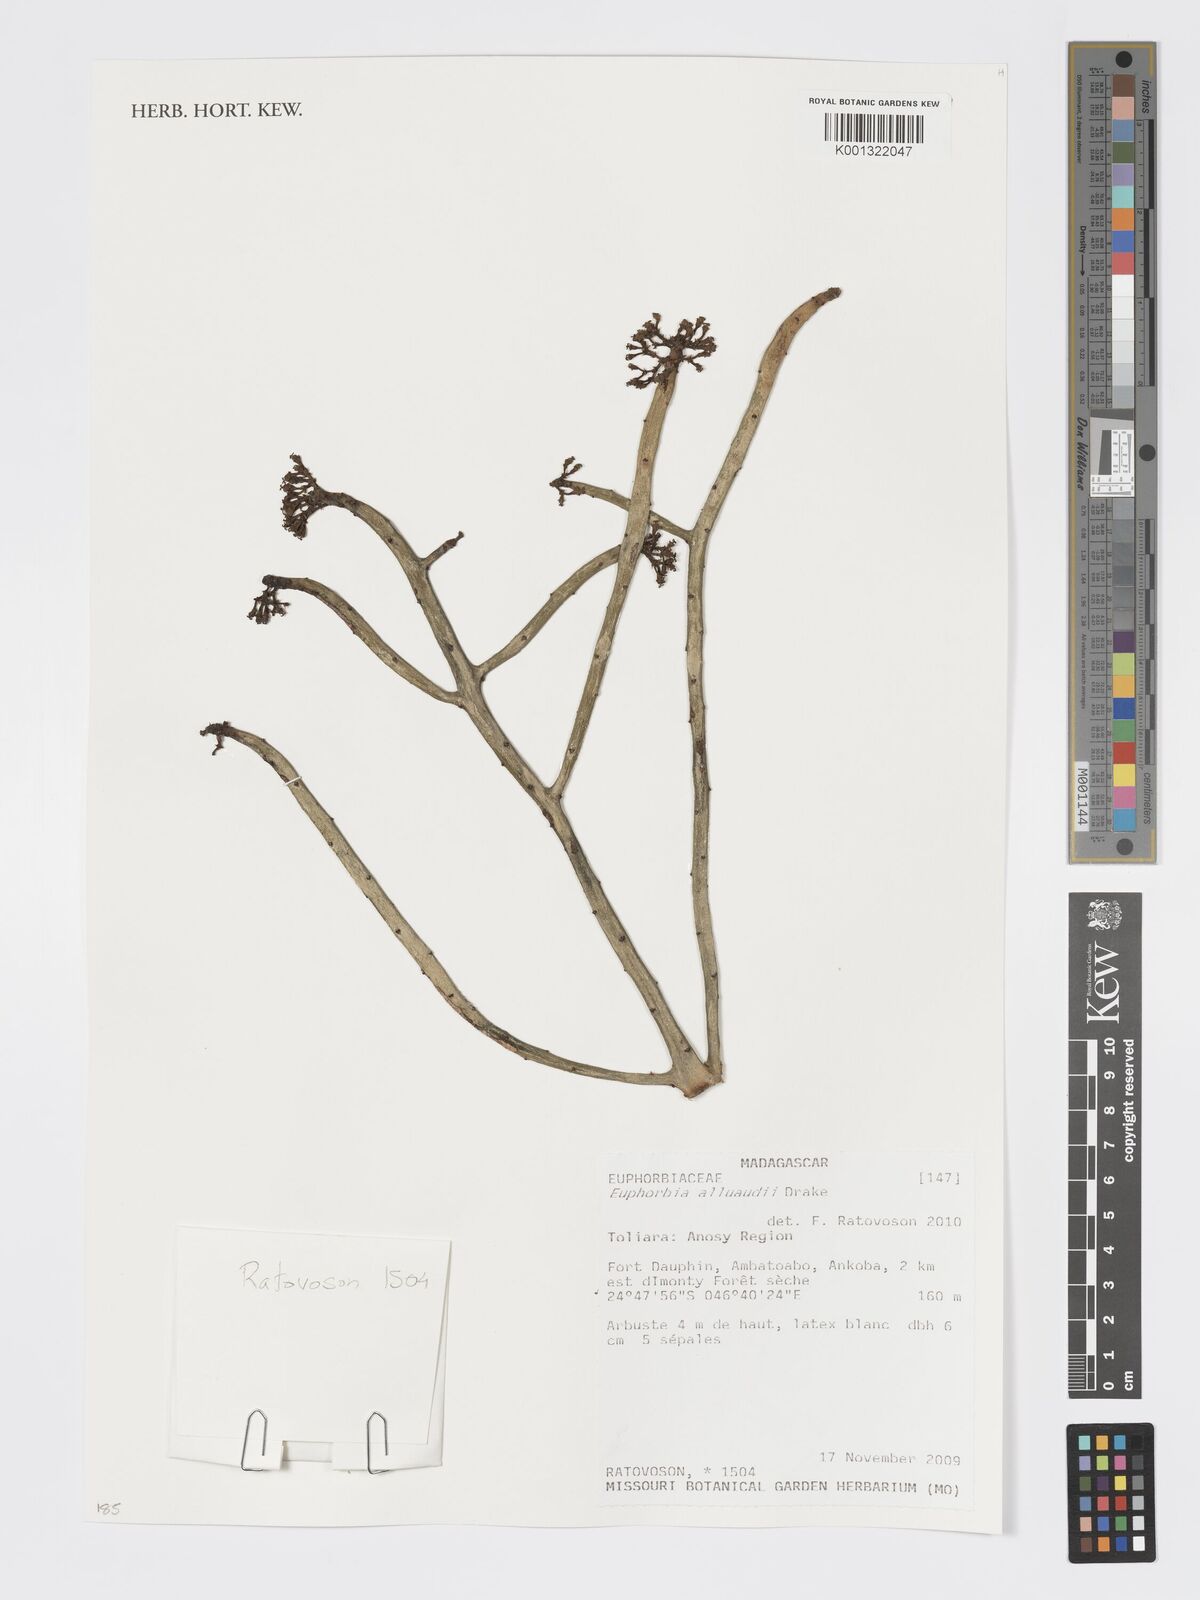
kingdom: Plantae
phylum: Tracheophyta
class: Magnoliopsida
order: Malpighiales
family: Euphorbiaceae
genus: Euphorbia
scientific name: Euphorbia alluaudii
